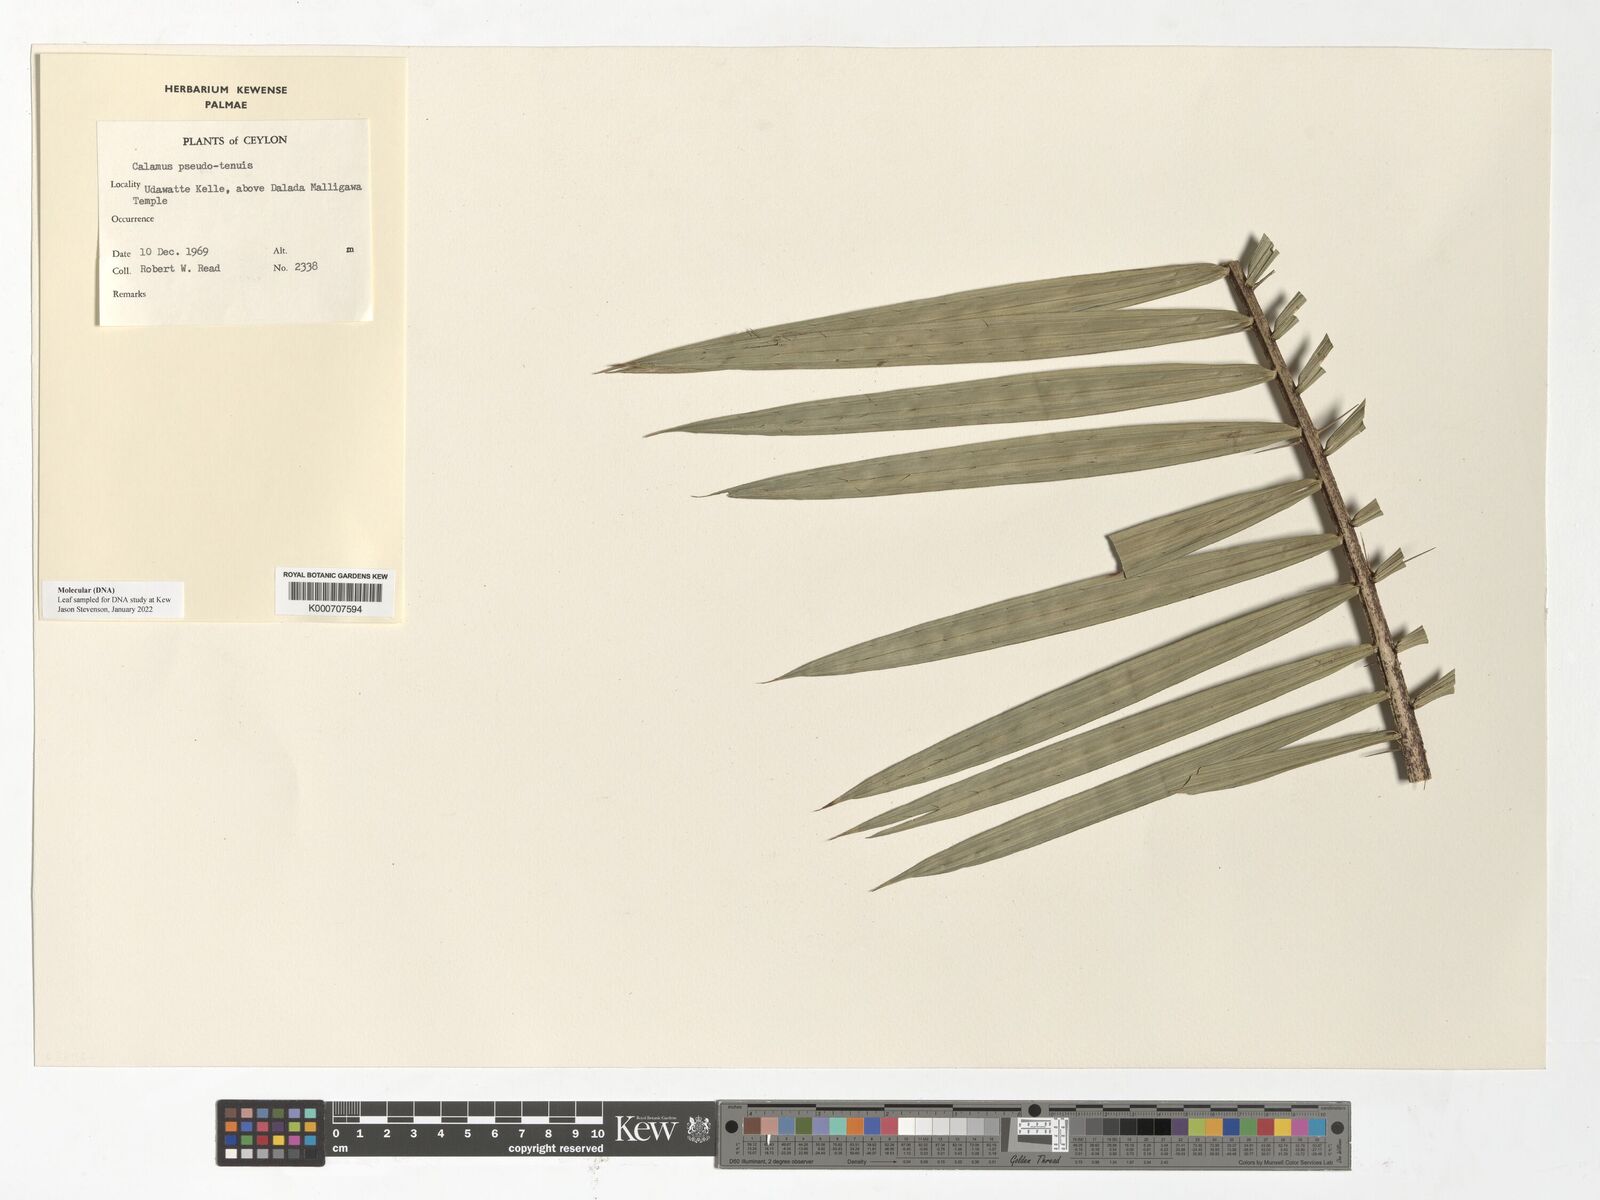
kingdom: Plantae
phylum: Tracheophyta
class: Liliopsida
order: Arecales
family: Arecaceae
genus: Calamus
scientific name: Calamus
